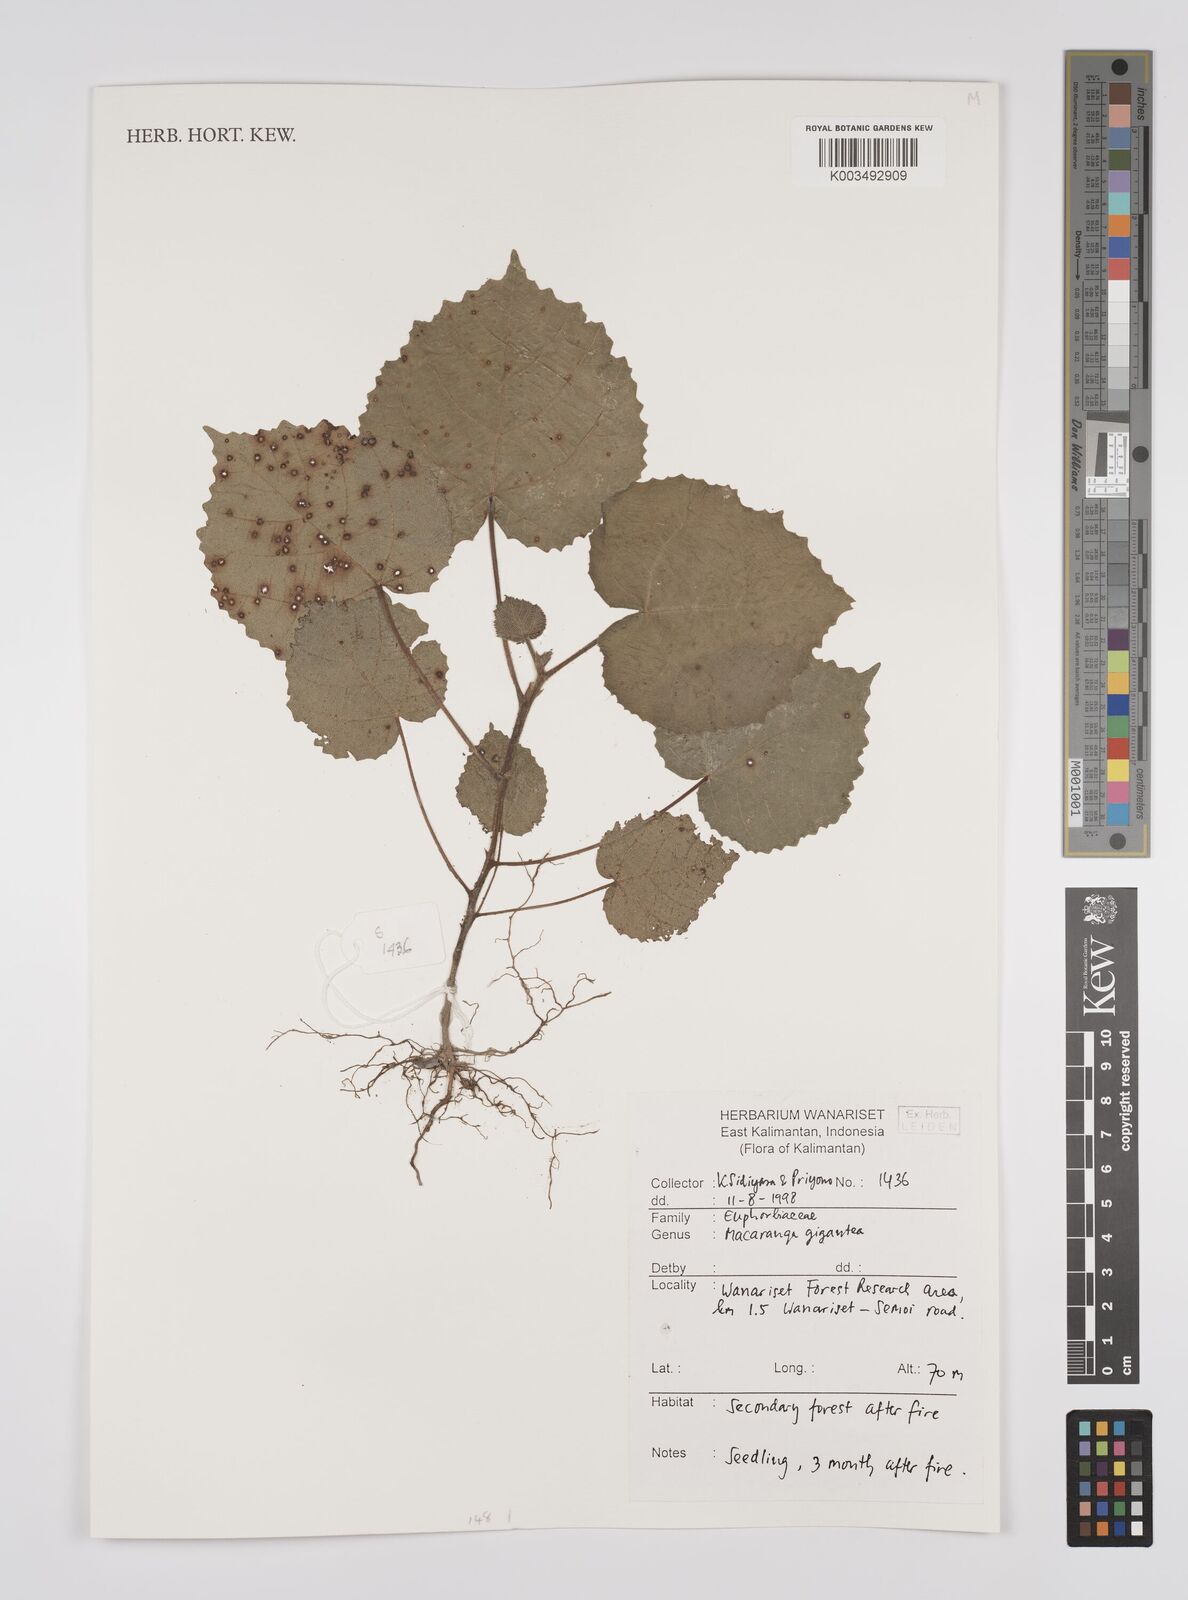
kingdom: Plantae
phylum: Tracheophyta
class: Magnoliopsida
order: Malpighiales
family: Euphorbiaceae
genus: Macaranga
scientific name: Macaranga gigantea
